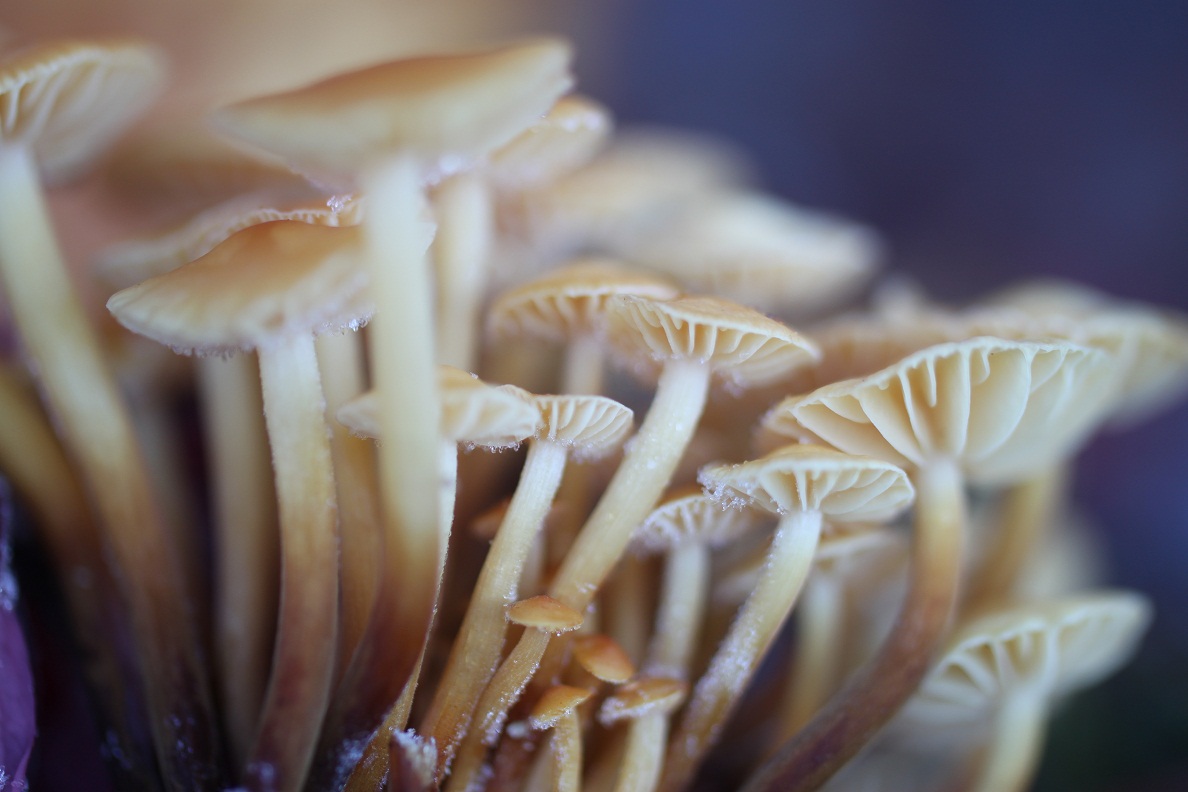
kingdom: Fungi
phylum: Basidiomycota
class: Agaricomycetes
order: Agaricales
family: Physalacriaceae
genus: Flammulina
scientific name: Flammulina elastica
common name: pile-fløjlsfod
